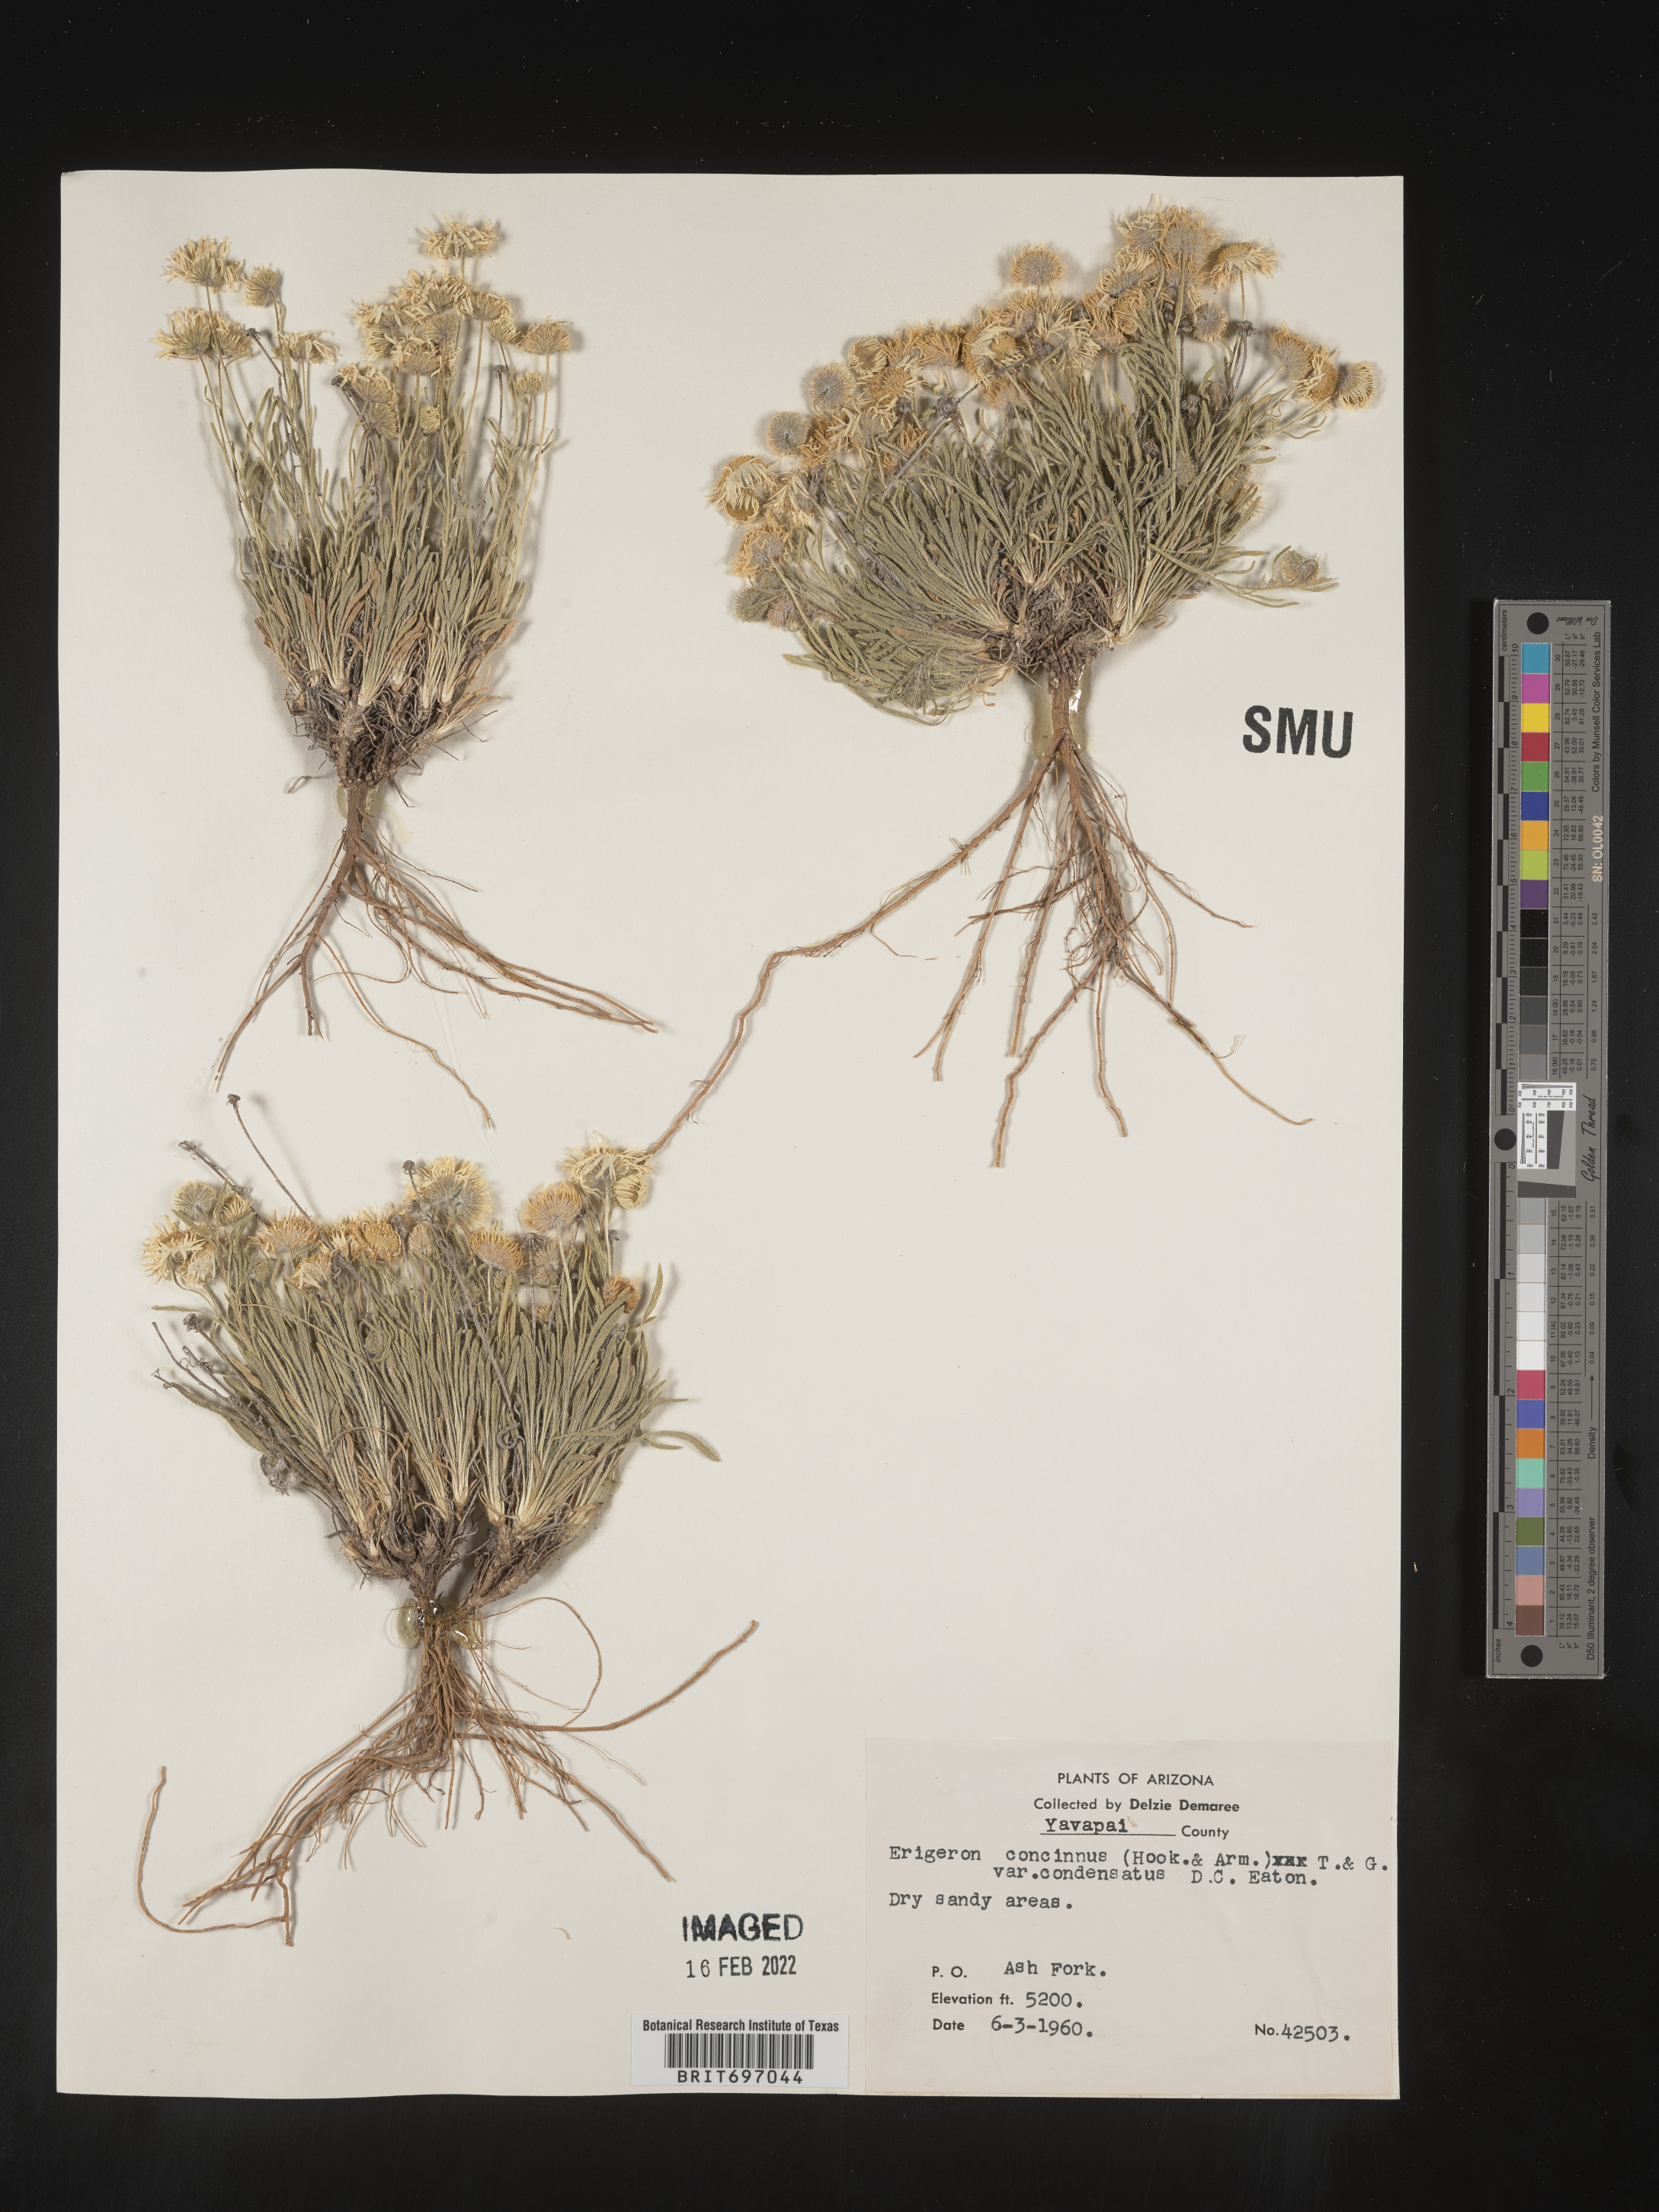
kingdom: Plantae
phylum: Tracheophyta
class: Magnoliopsida
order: Asterales
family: Asteraceae
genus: Erigeron
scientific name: Erigeron concinnus
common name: Navajo fleabane
